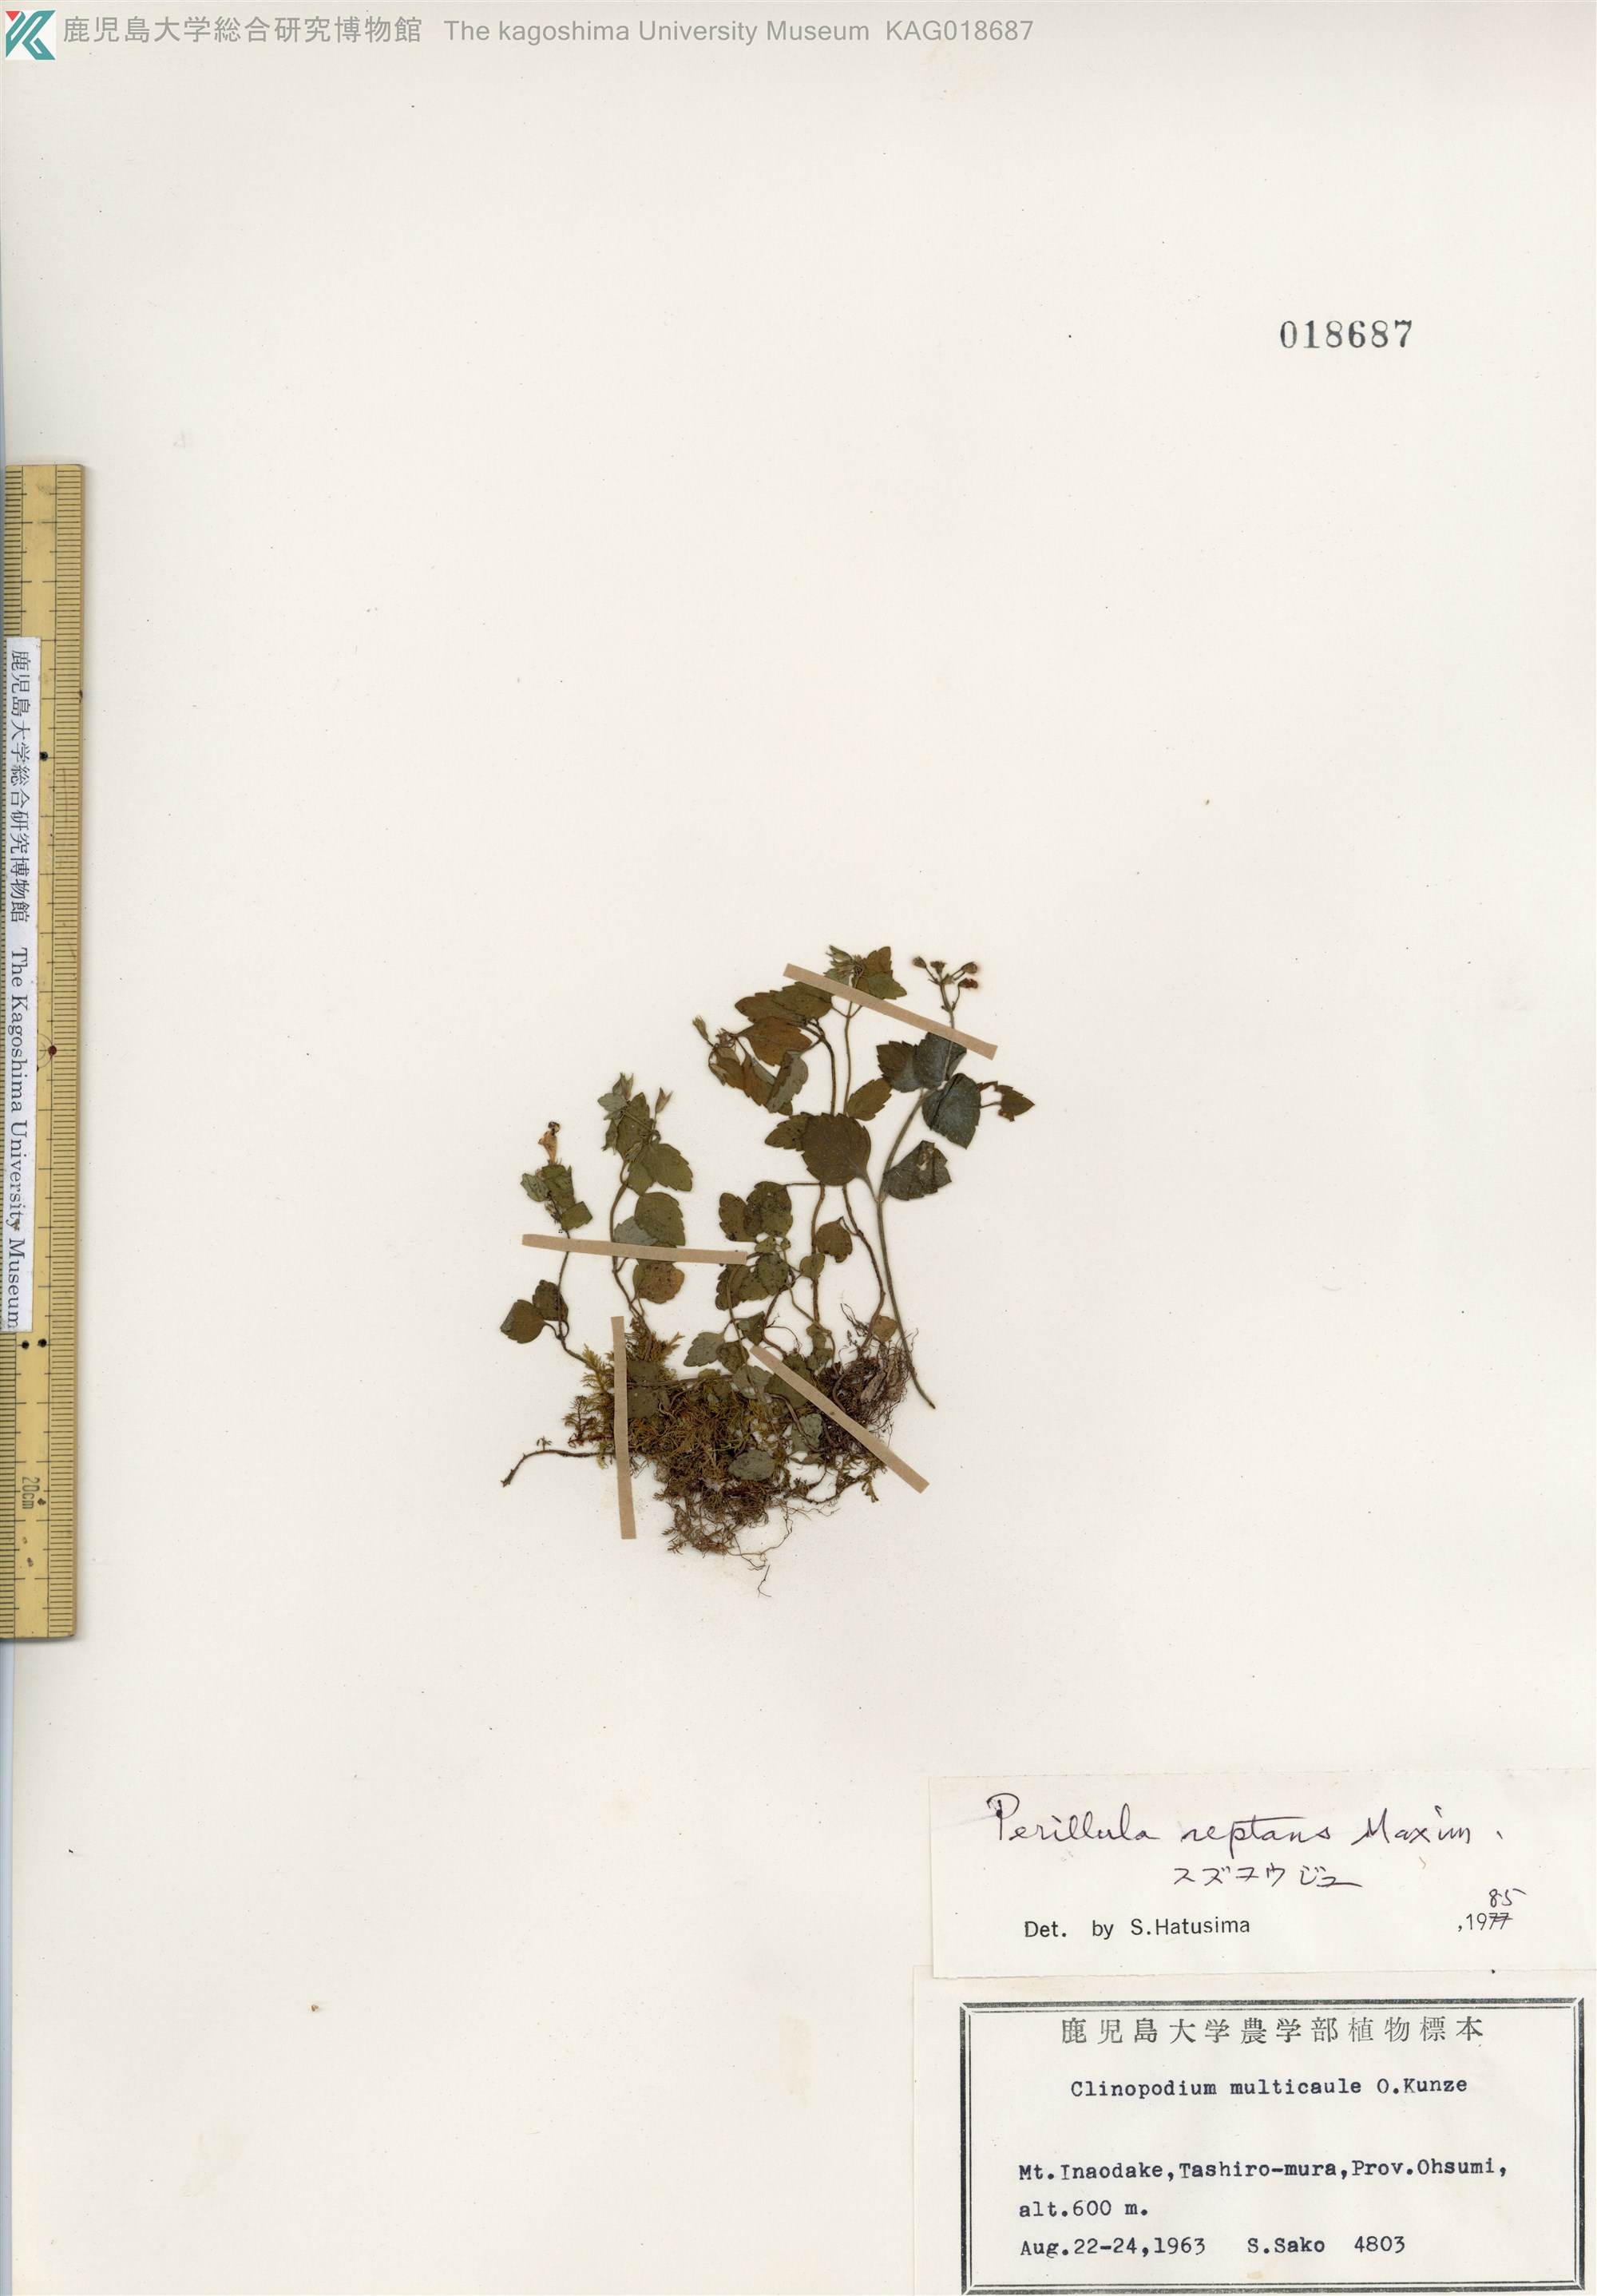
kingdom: Plantae
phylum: Tracheophyta
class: Magnoliopsida
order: Lamiales
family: Lamiaceae
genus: Perillula
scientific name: Perillula reptans
